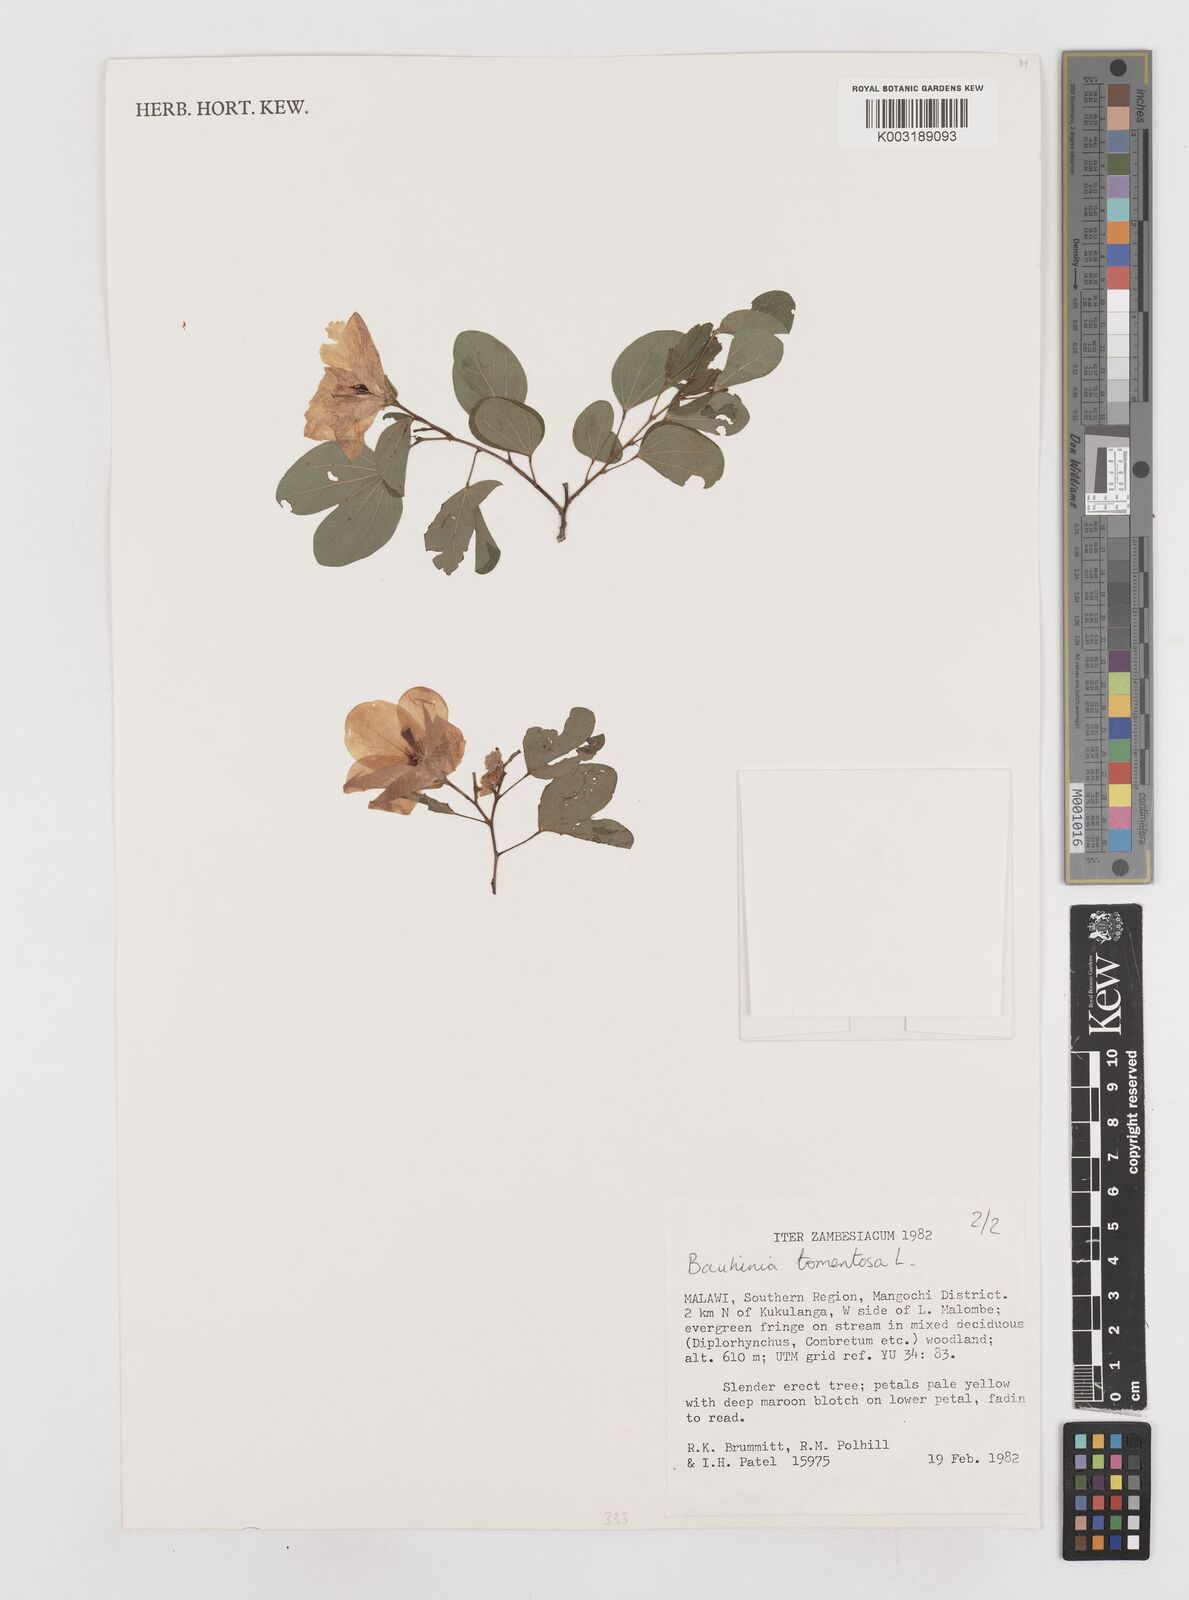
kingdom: Plantae
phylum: Tracheophyta
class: Magnoliopsida
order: Fabales
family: Fabaceae
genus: Bauhinia
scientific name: Bauhinia tomentosa
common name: Bell bauhinia
